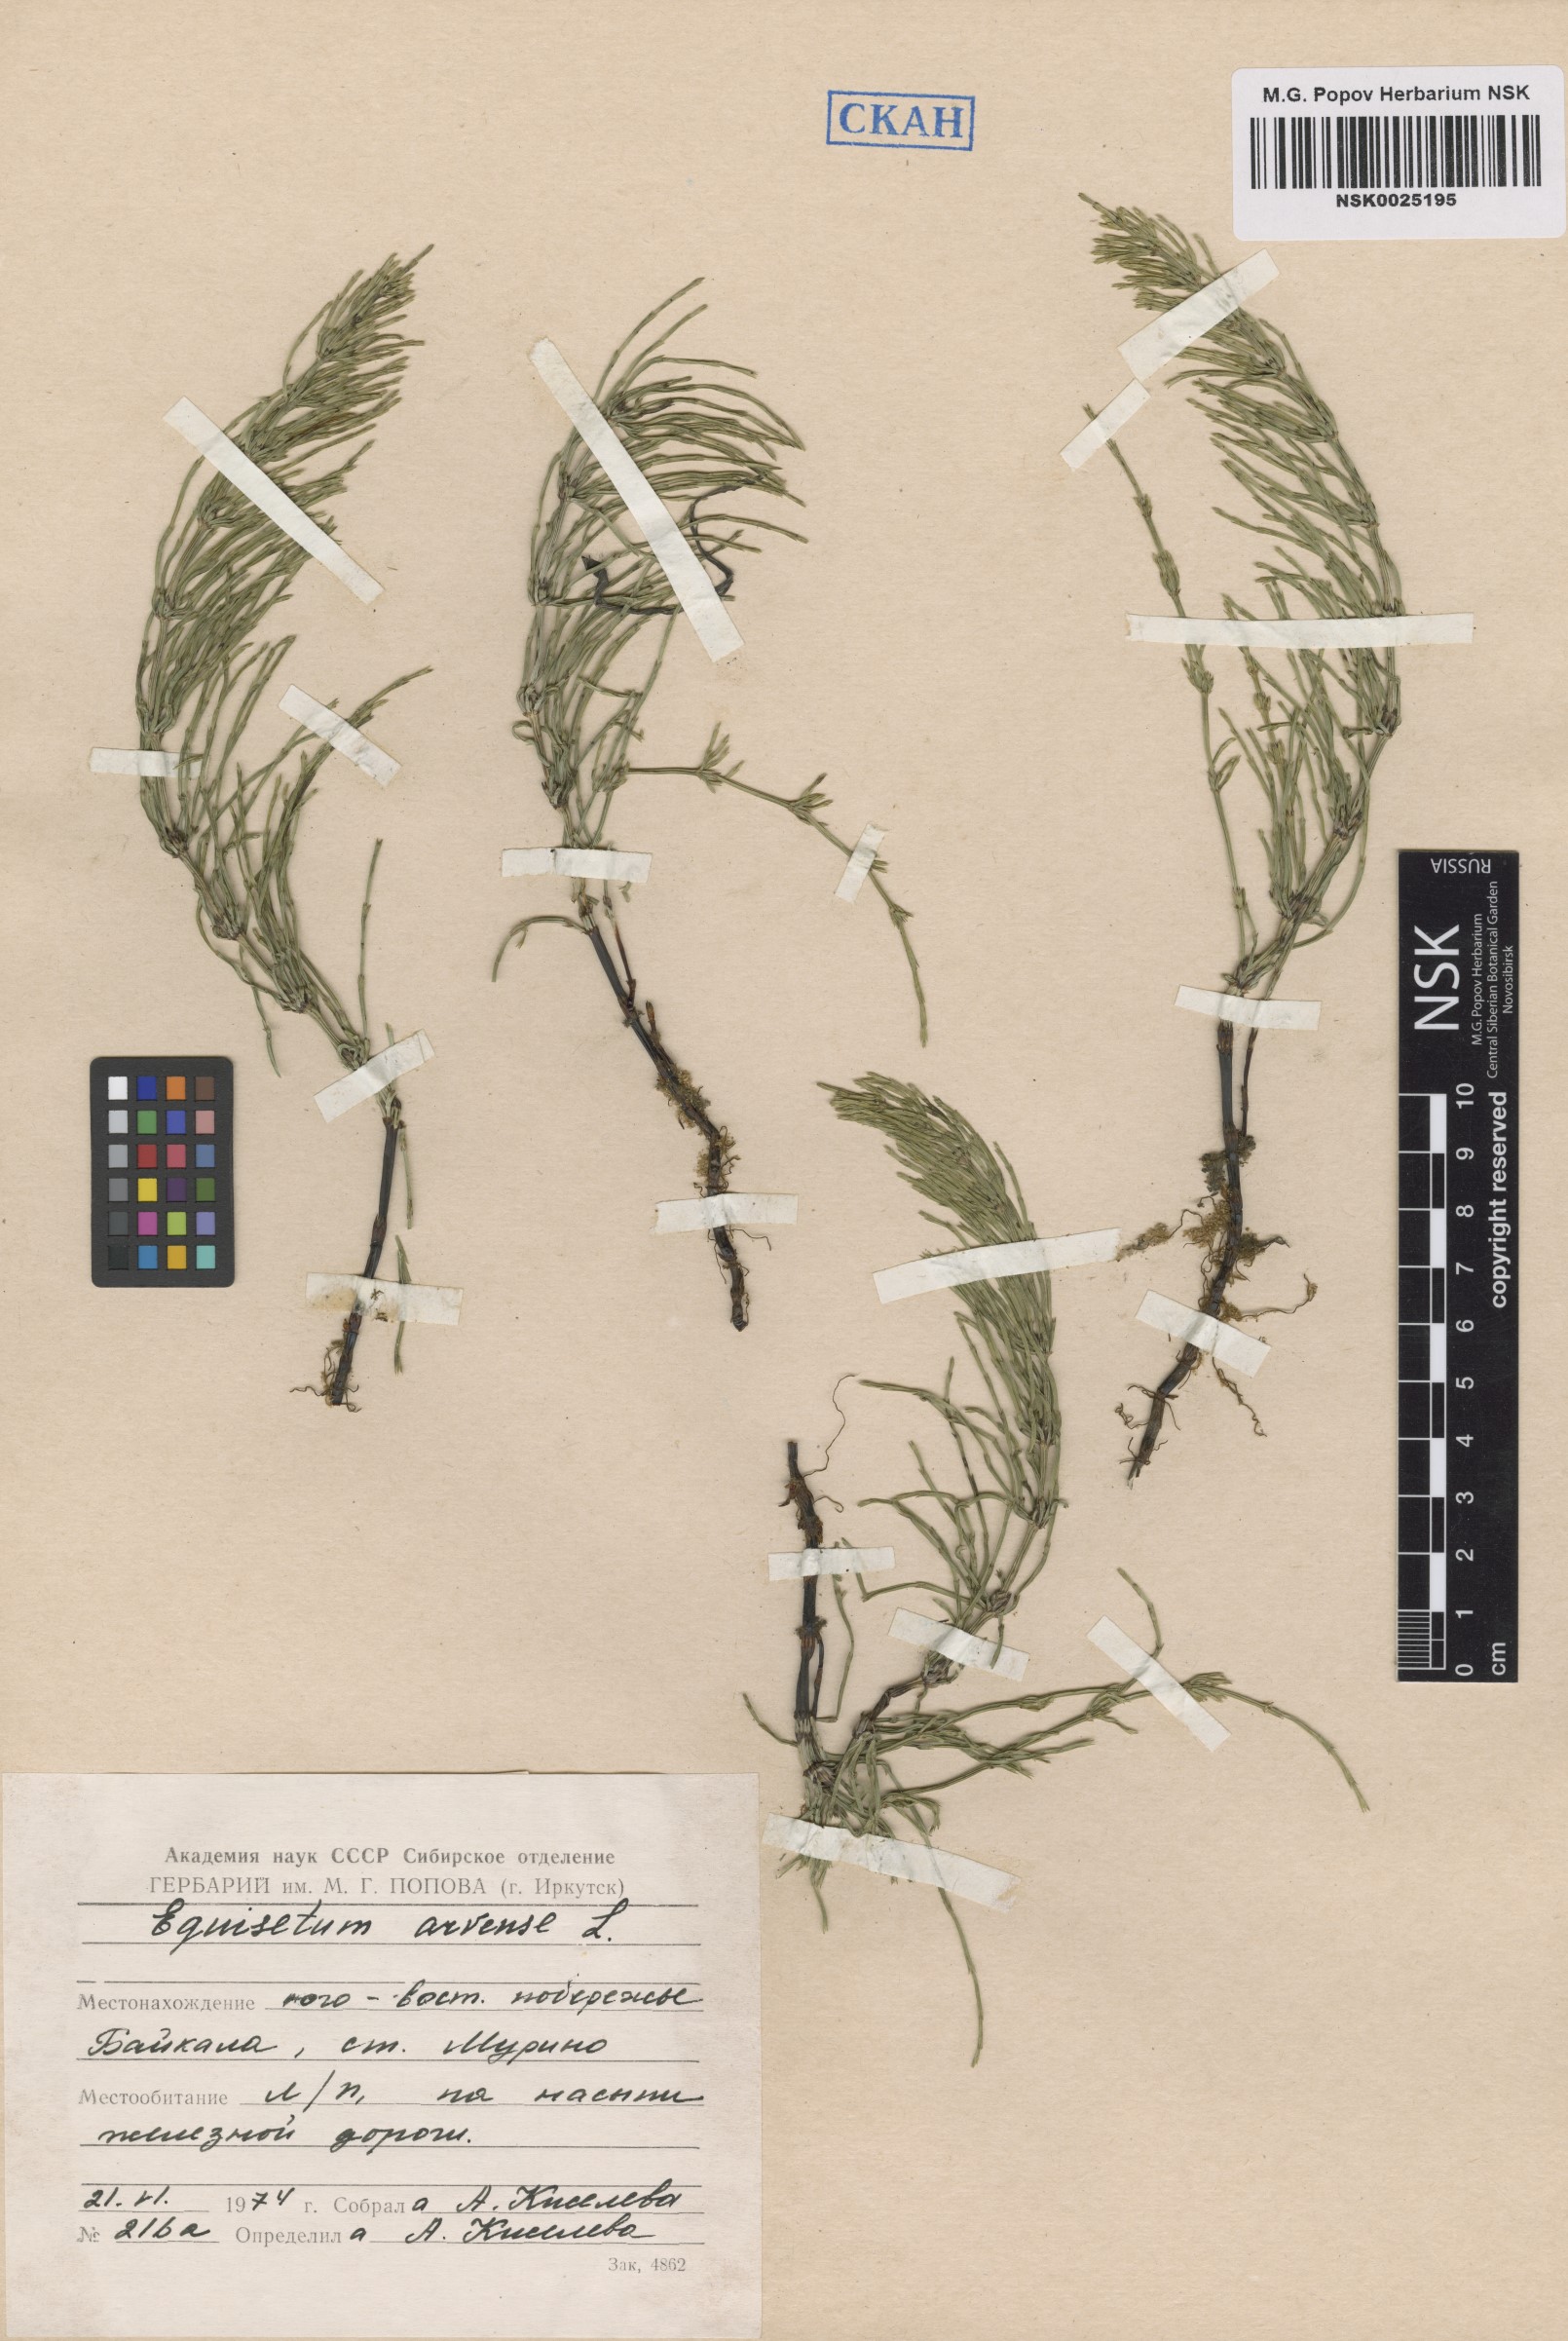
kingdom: Plantae
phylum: Tracheophyta
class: Polypodiopsida
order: Equisetales
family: Equisetaceae
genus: Equisetum
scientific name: Equisetum arvense
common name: Field horsetail
